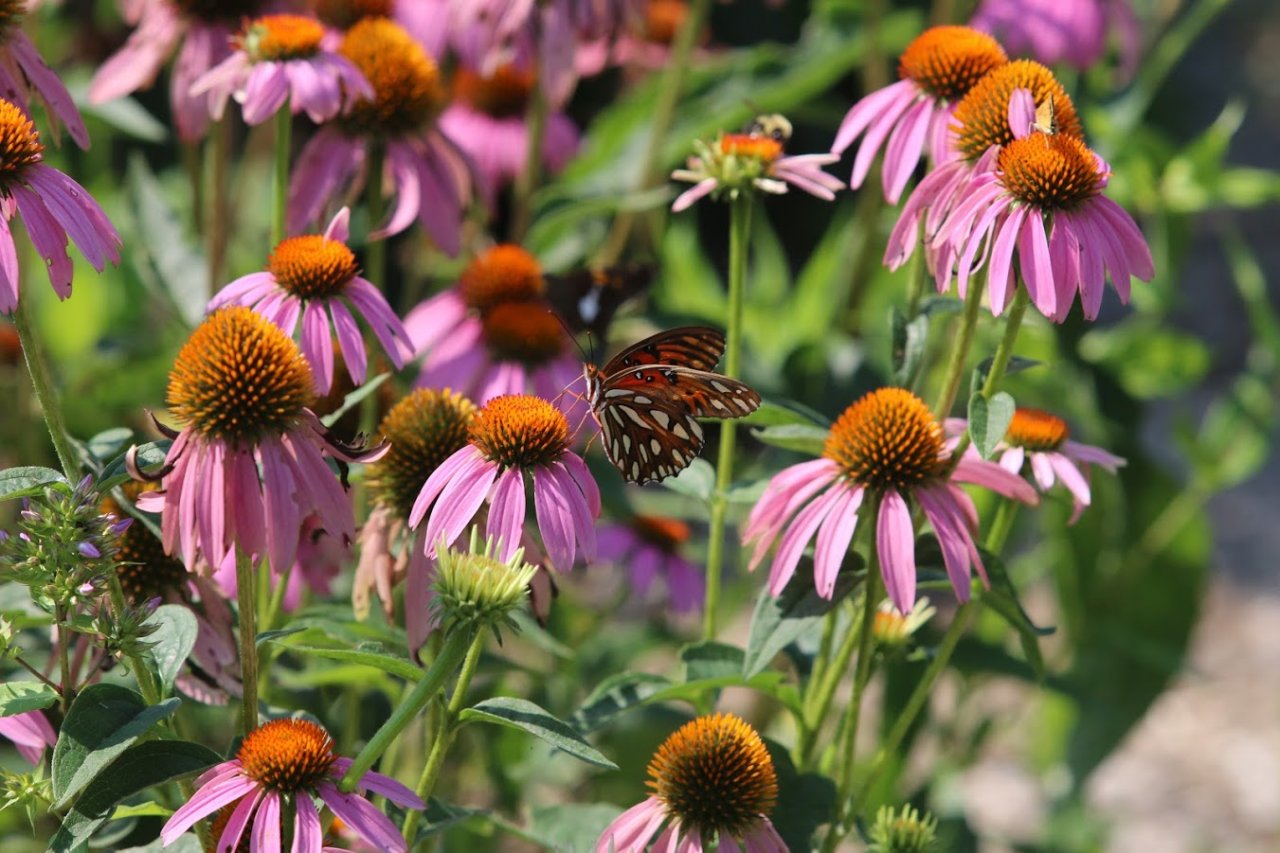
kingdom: Animalia
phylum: Arthropoda
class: Insecta
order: Lepidoptera
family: Nymphalidae
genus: Dione
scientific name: Dione vanillae
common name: Gulf Fritillary
